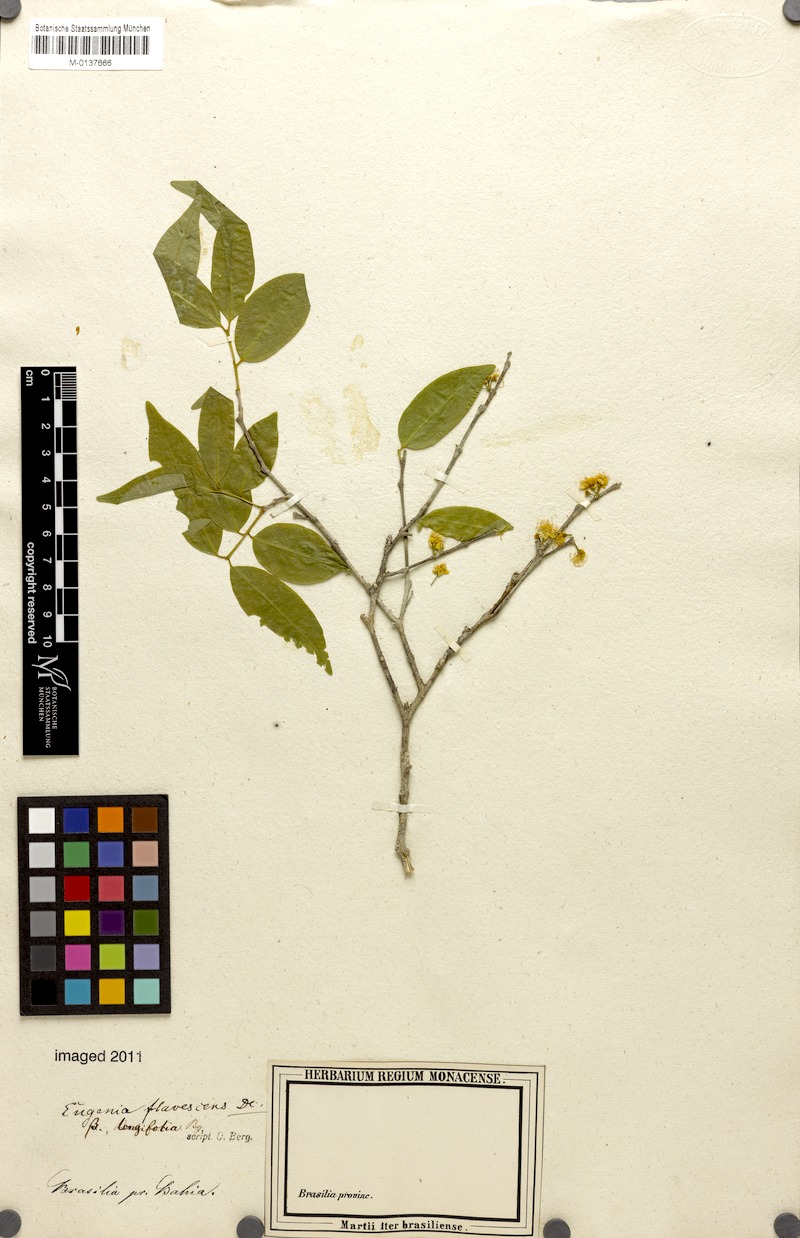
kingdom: Plantae
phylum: Tracheophyta
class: Magnoliopsida
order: Myrtales
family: Myrtaceae
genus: Eugenia
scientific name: Eugenia flavescens
